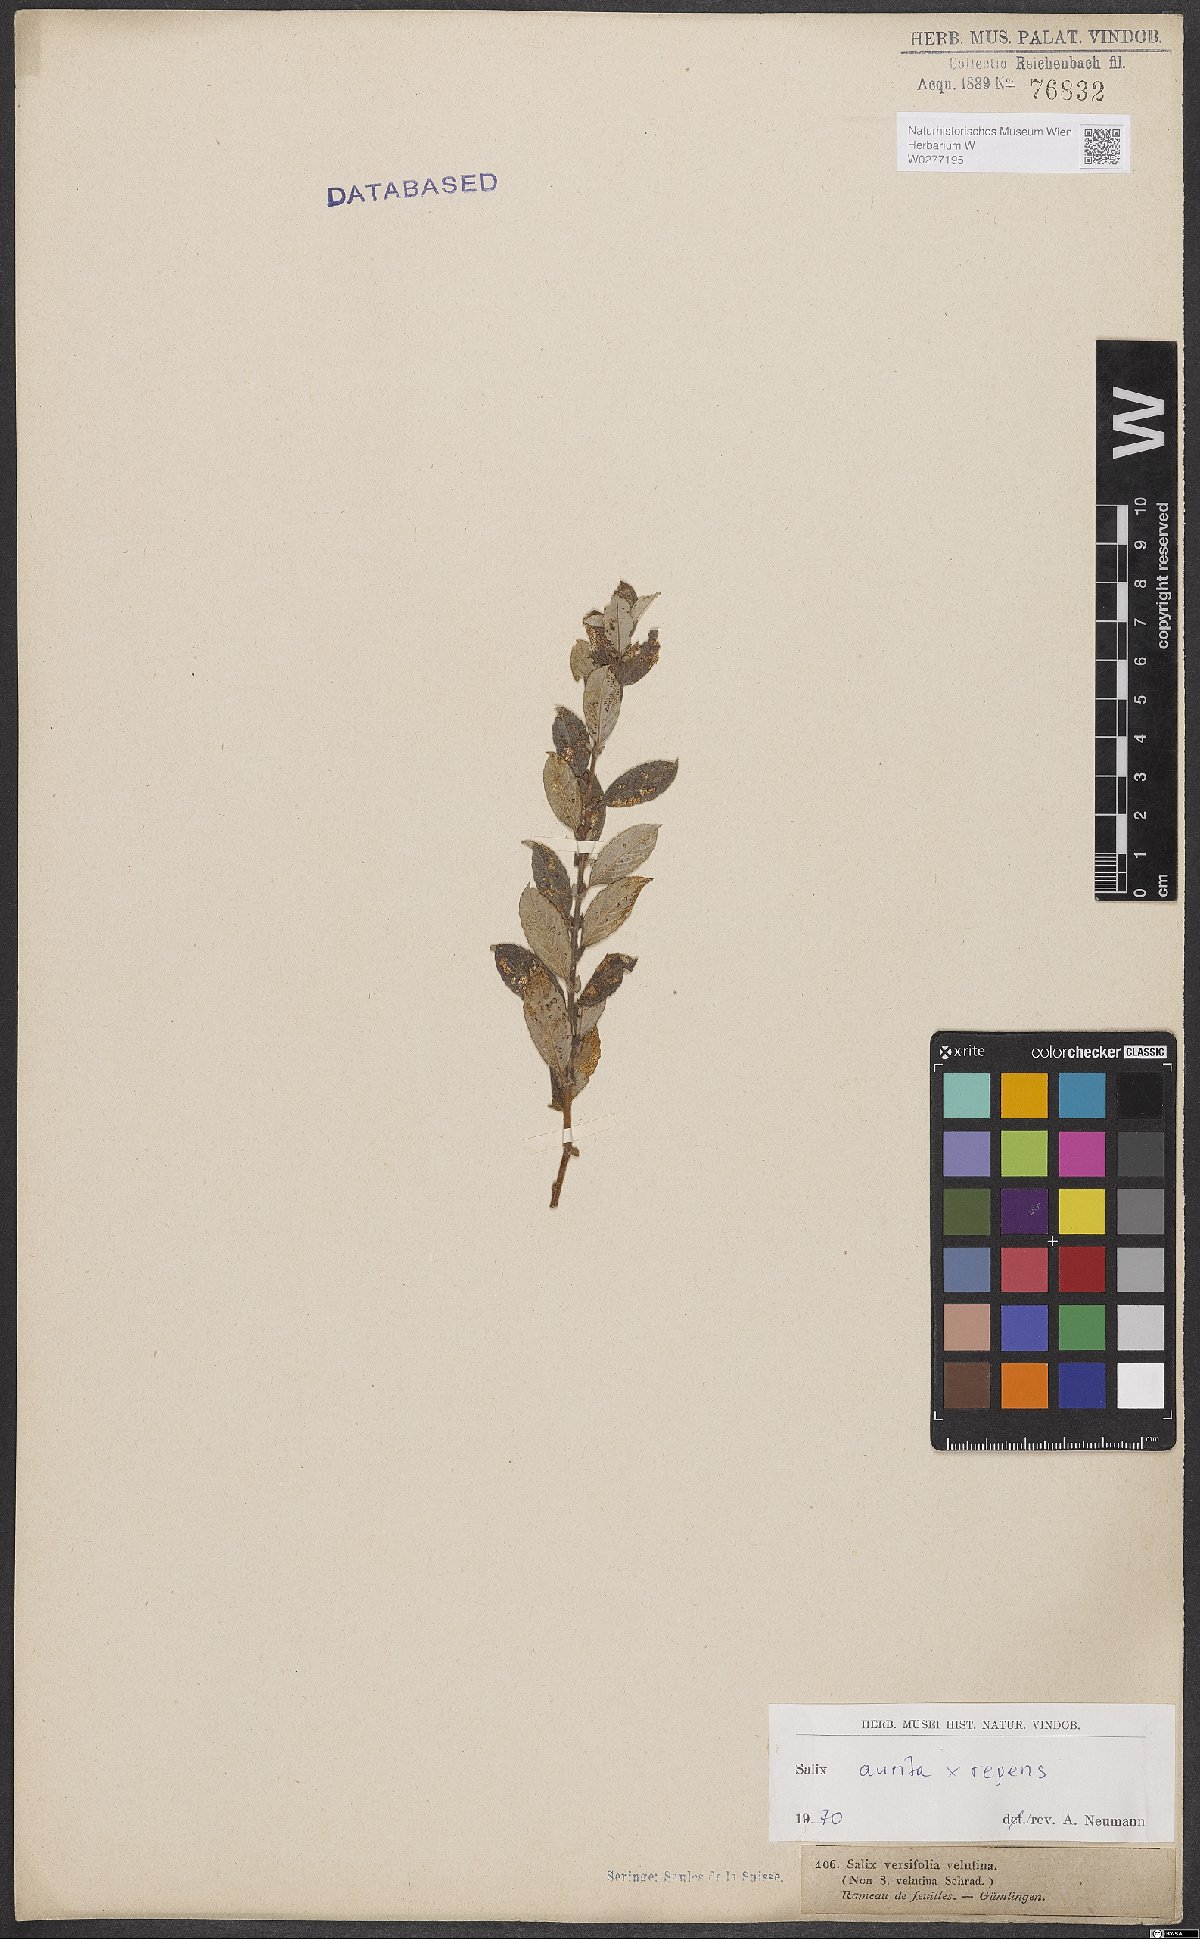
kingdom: Plantae
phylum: Tracheophyta
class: Magnoliopsida
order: Malpighiales
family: Salicaceae
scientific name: Salicaceae
